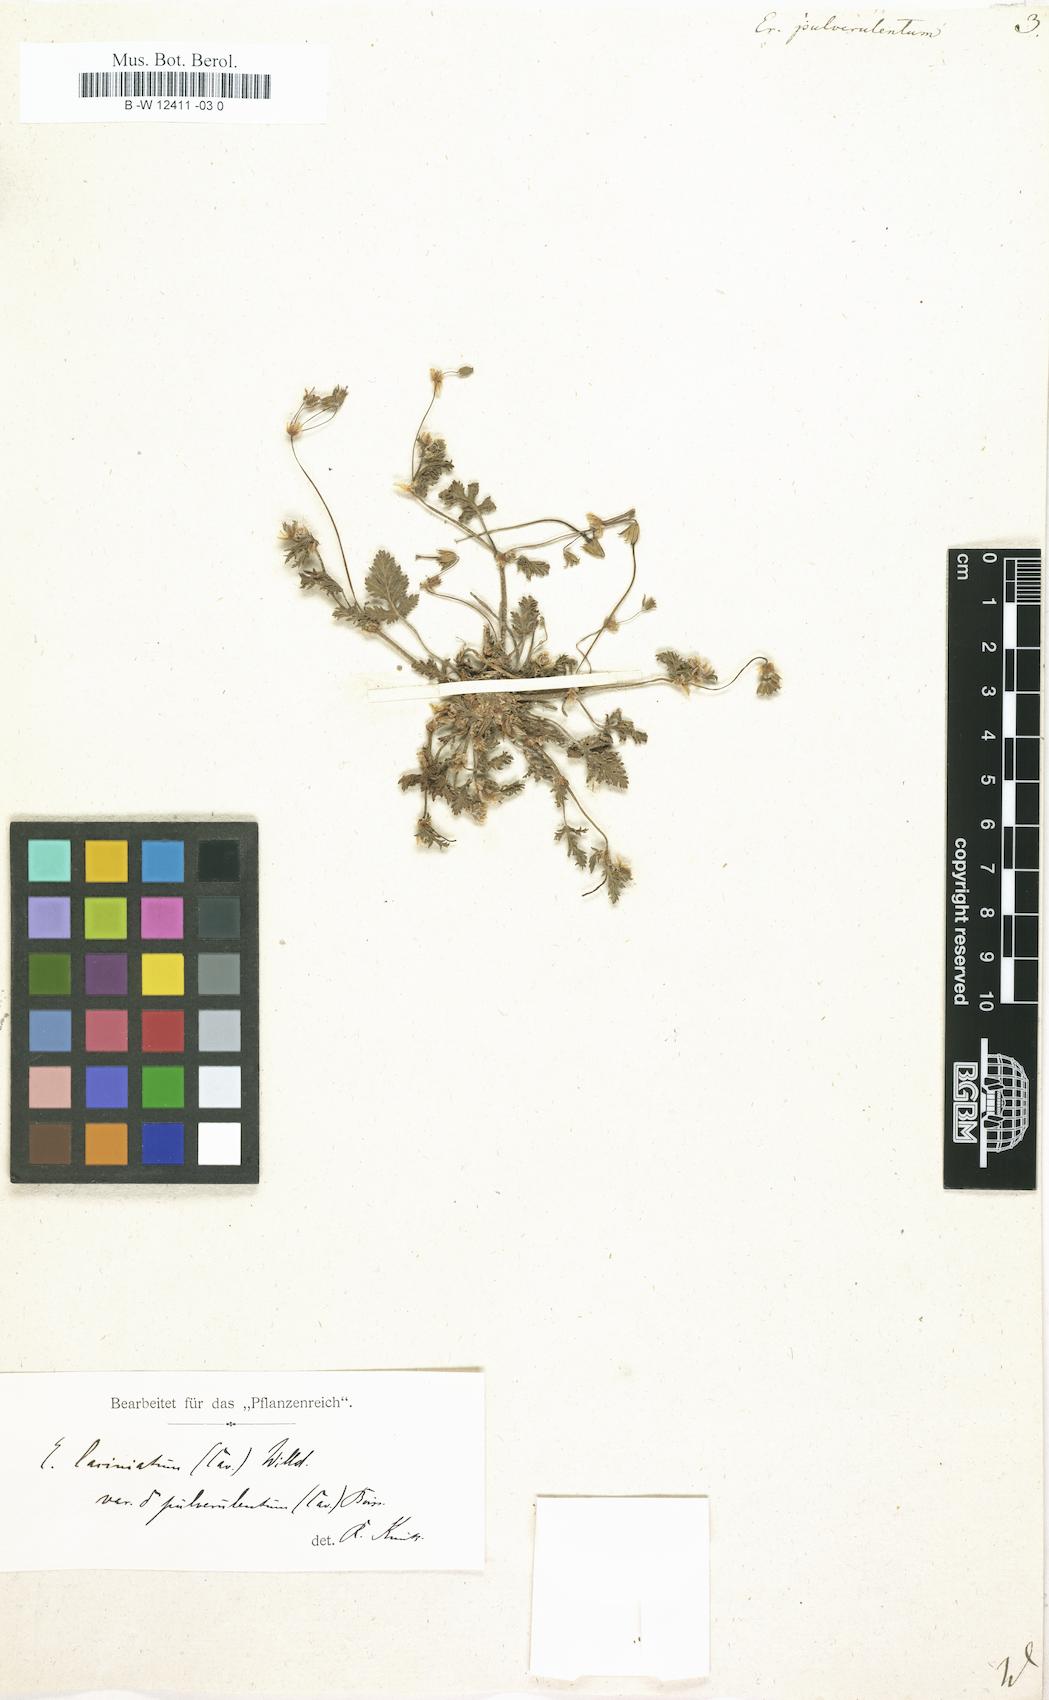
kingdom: Plantae
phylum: Tracheophyta
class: Magnoliopsida
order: Geraniales
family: Geraniaceae
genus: Erodium
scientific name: Erodium laciniatum
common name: Cutleaf stork's bill
